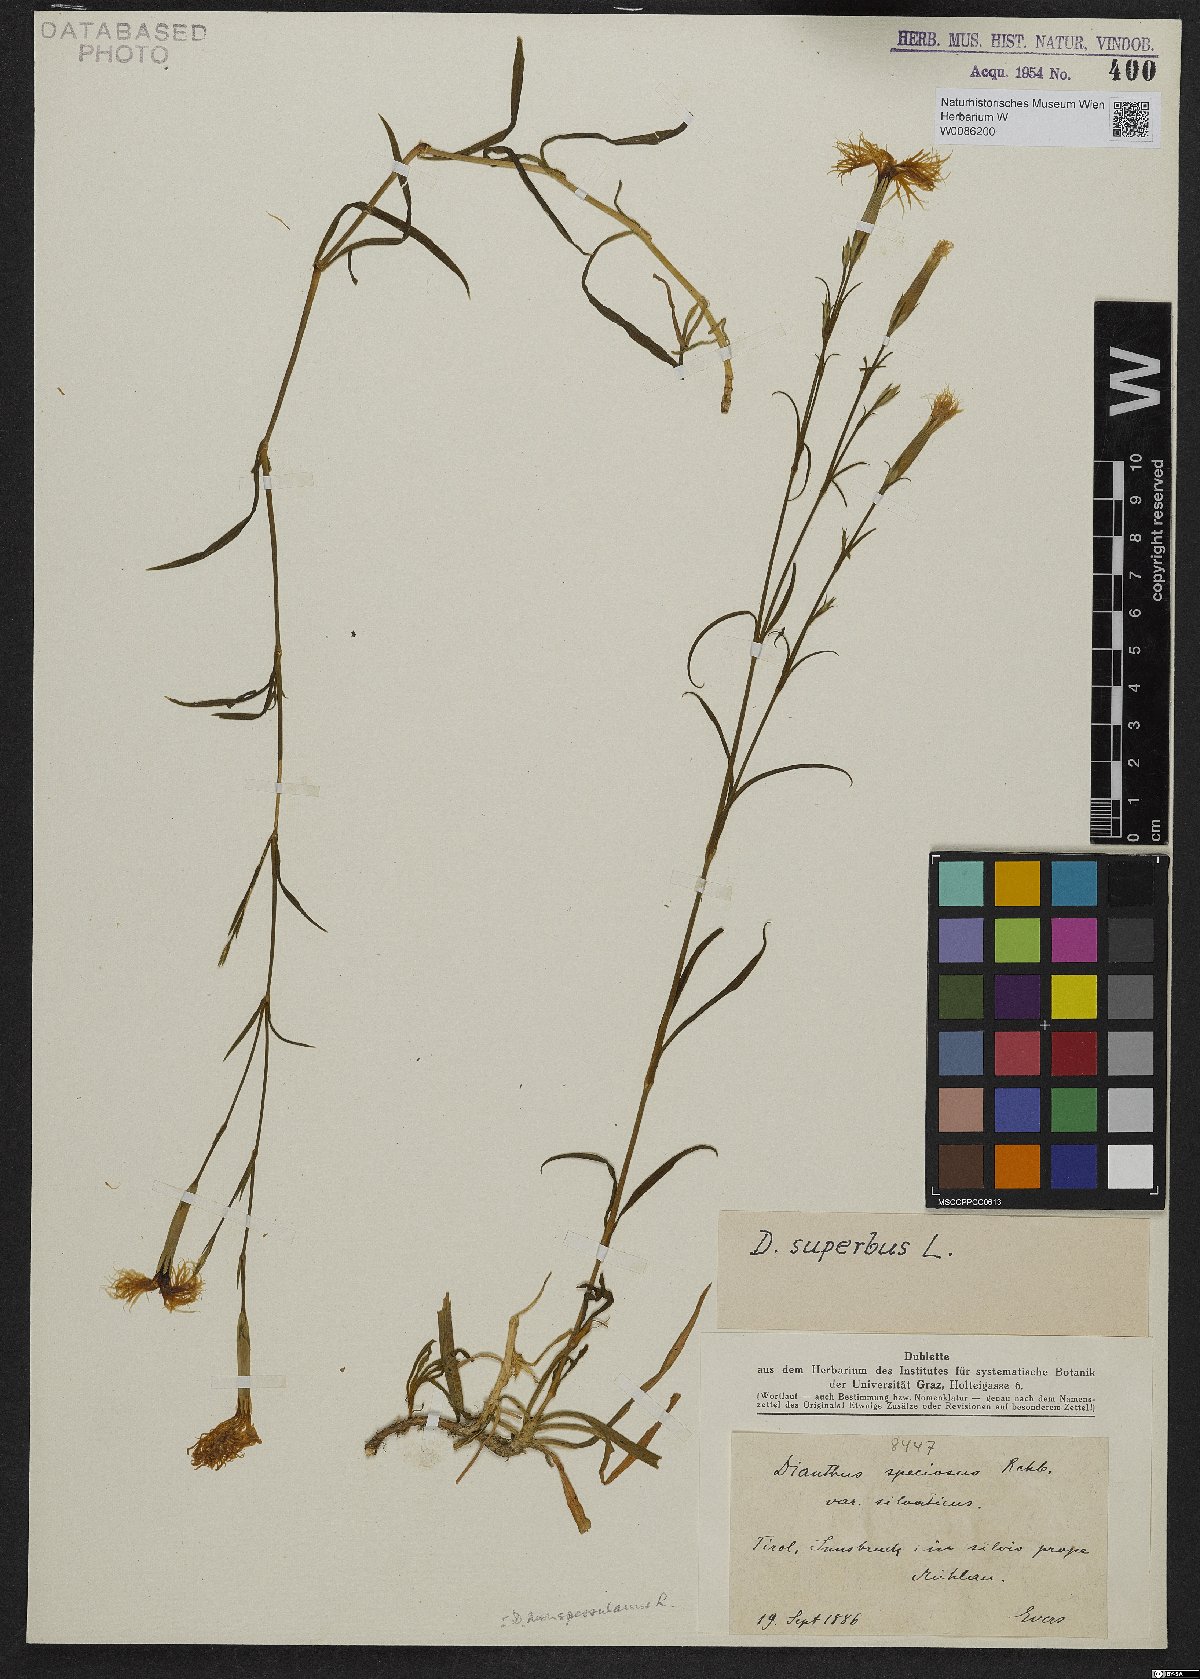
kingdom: Plantae
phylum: Tracheophyta
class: Magnoliopsida
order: Caryophyllales
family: Caryophyllaceae
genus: Dianthus
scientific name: Dianthus superbus
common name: Fringed pink
